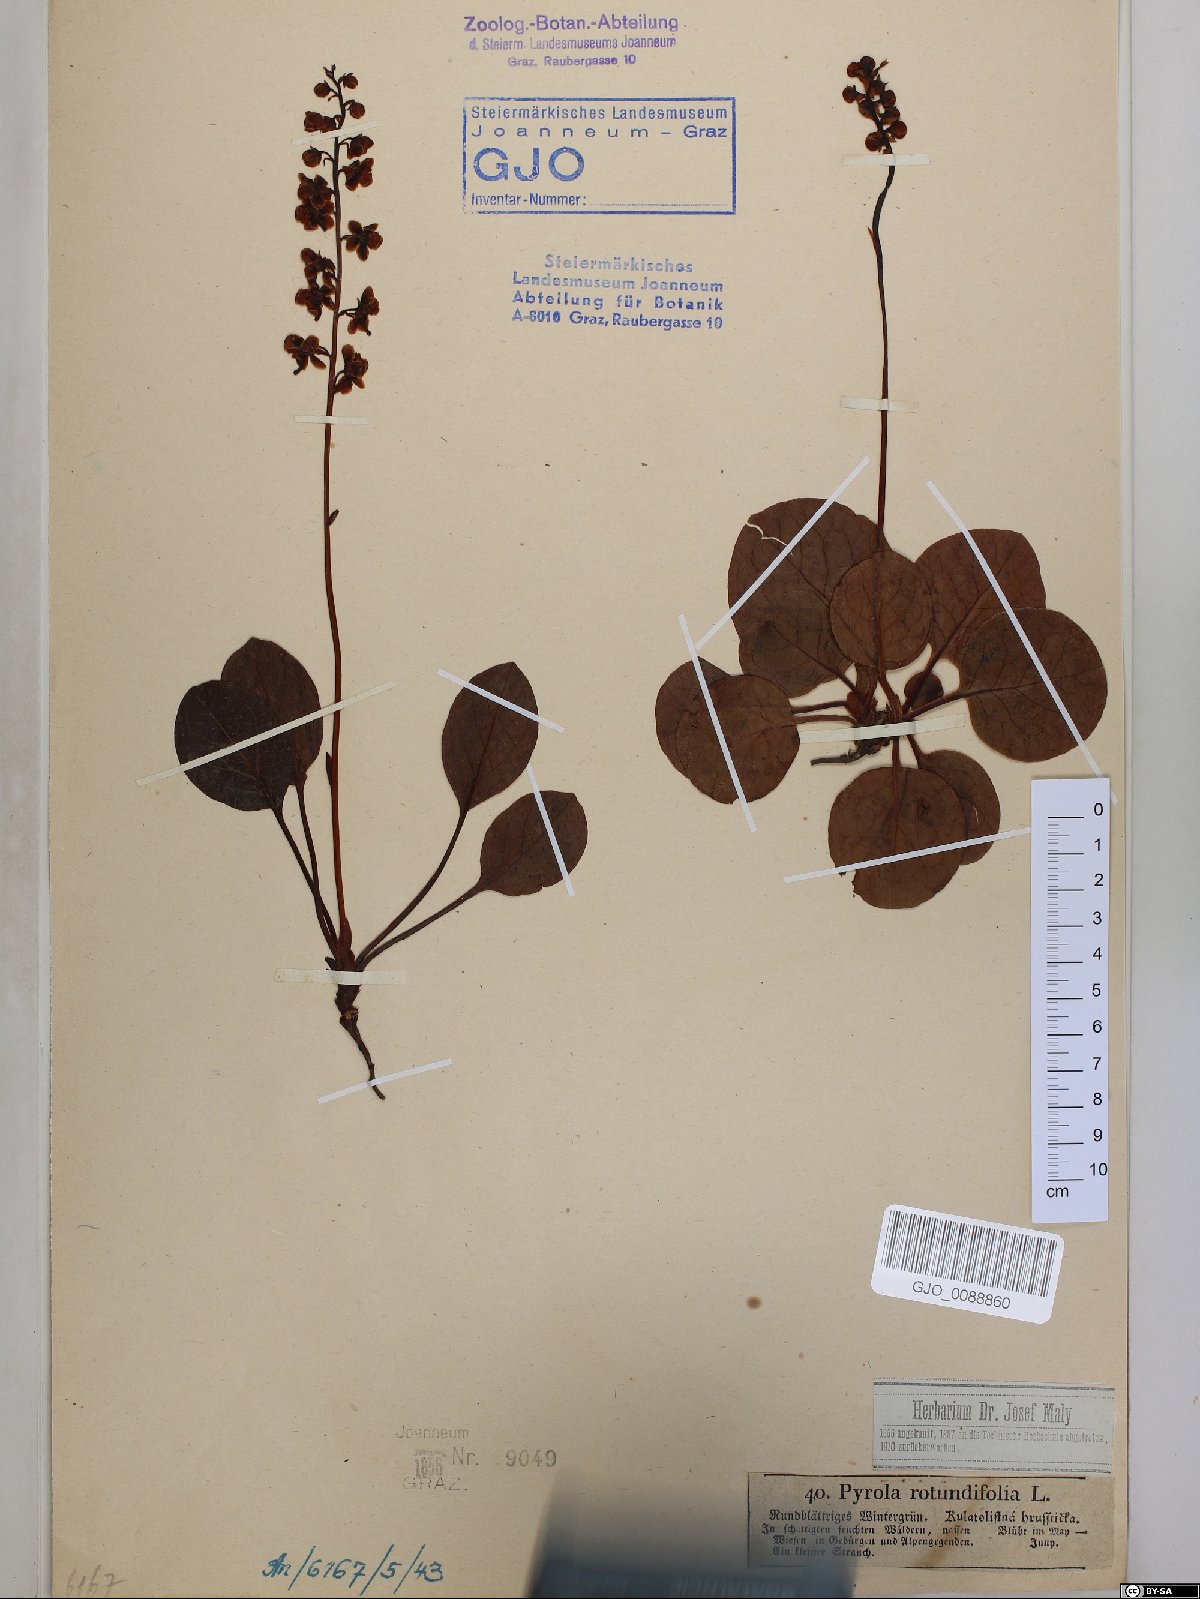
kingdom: Plantae
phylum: Tracheophyta
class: Magnoliopsida
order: Ericales
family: Ericaceae
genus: Pyrola
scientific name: Pyrola rotundifolia
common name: Round-leaved wintergreen
